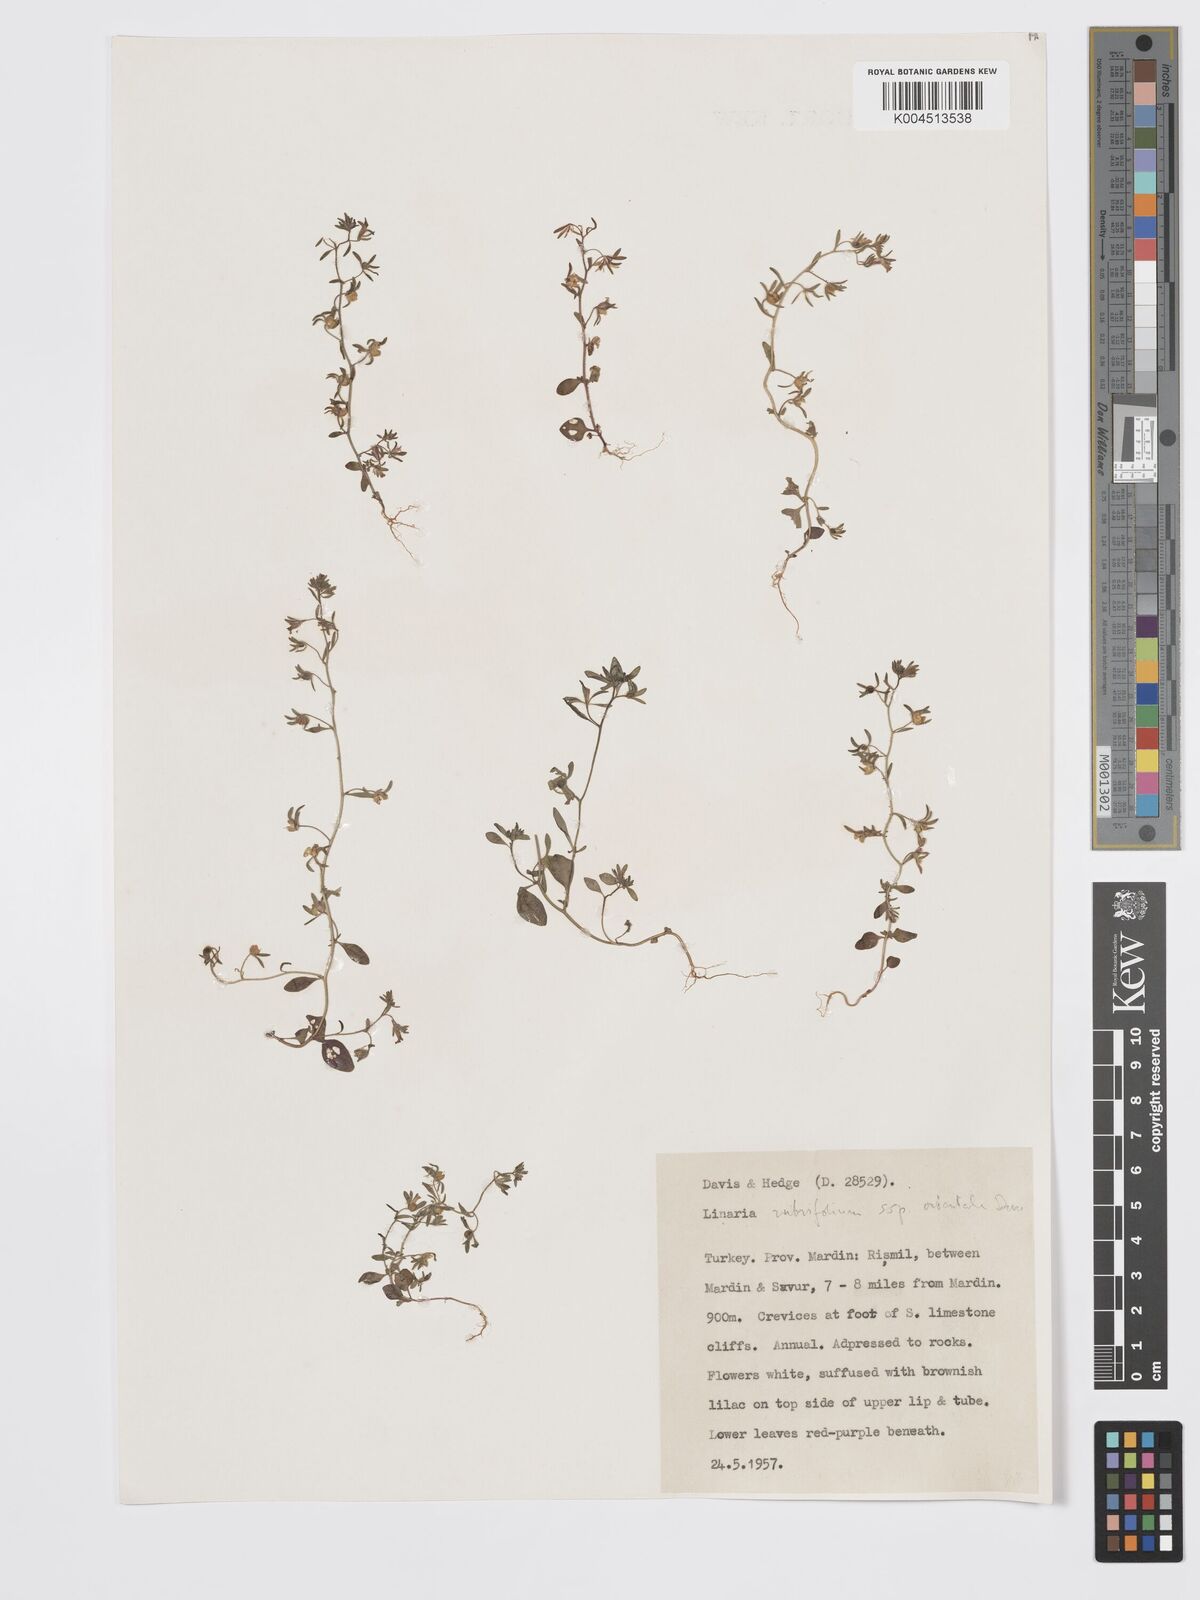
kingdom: Plantae
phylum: Tracheophyta
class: Magnoliopsida
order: Lamiales
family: Plantaginaceae
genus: Chaenorhinum
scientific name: Chaenorhinum rubrifolium
